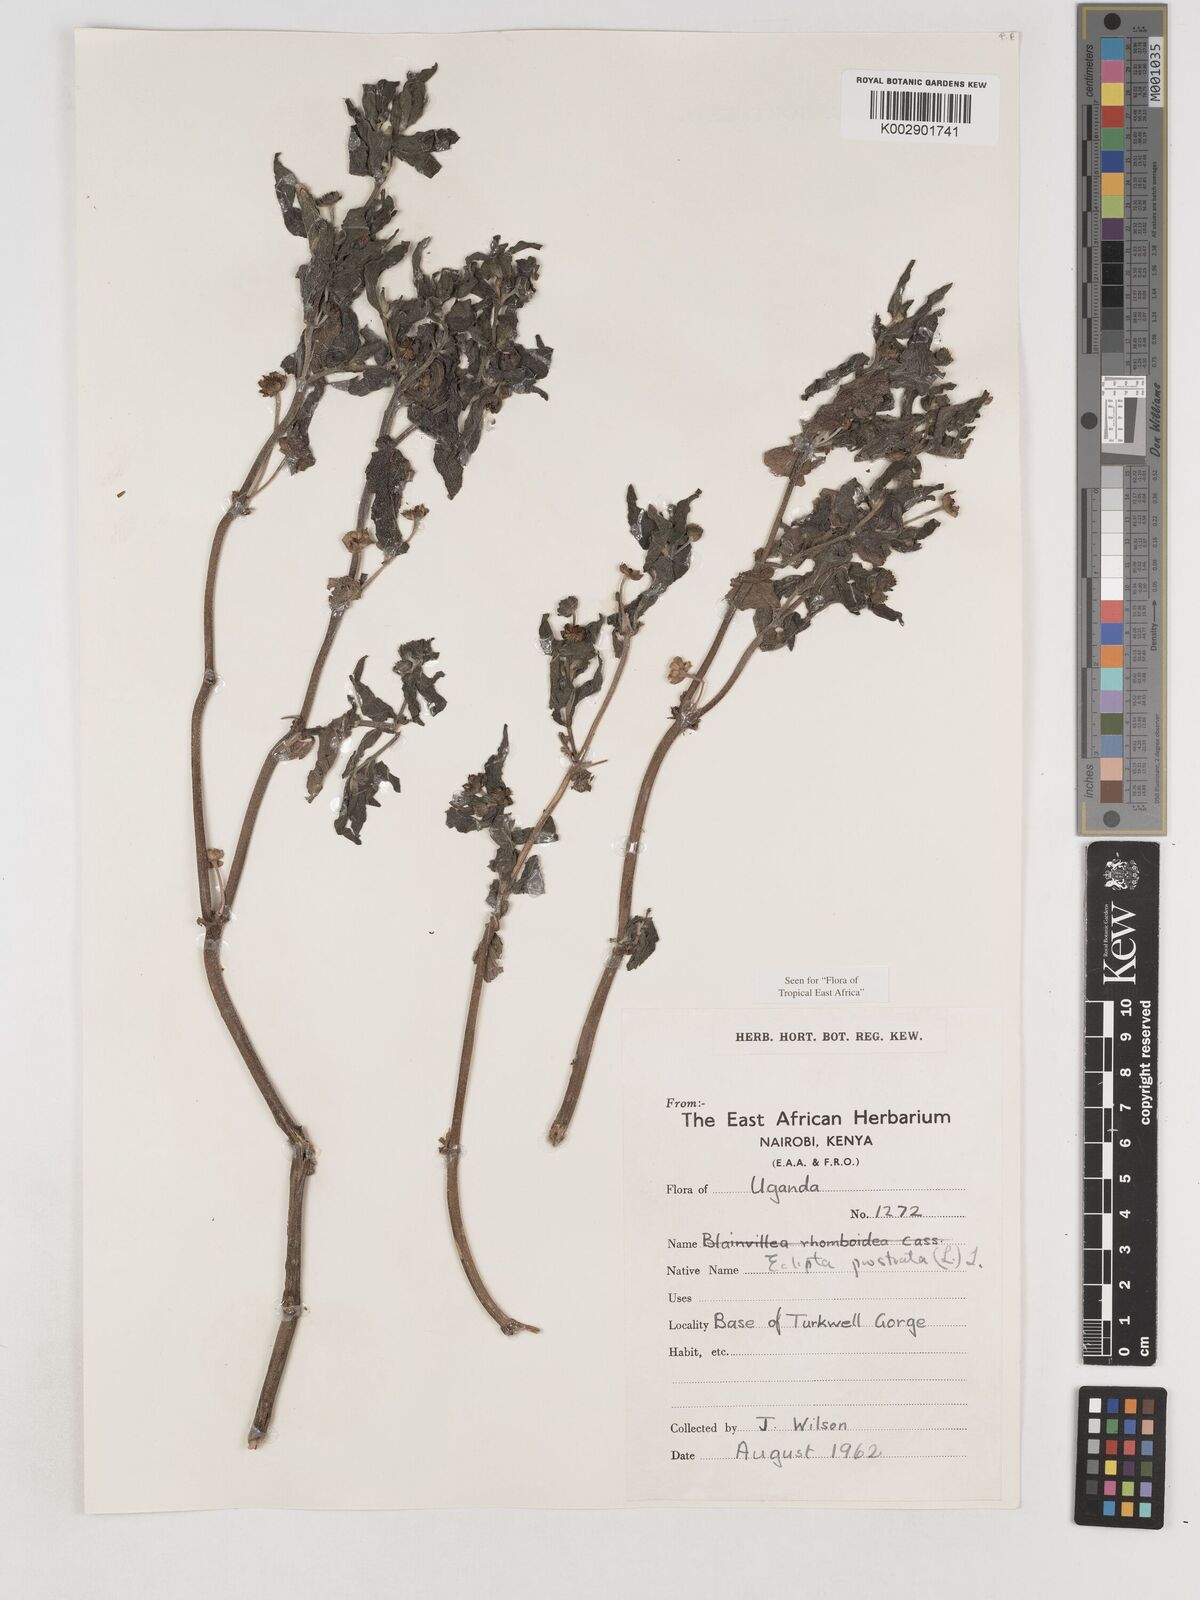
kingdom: Plantae
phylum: Tracheophyta
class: Magnoliopsida
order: Asterales
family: Asteraceae
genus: Eclipta
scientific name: Eclipta prostrata
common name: False daisy
